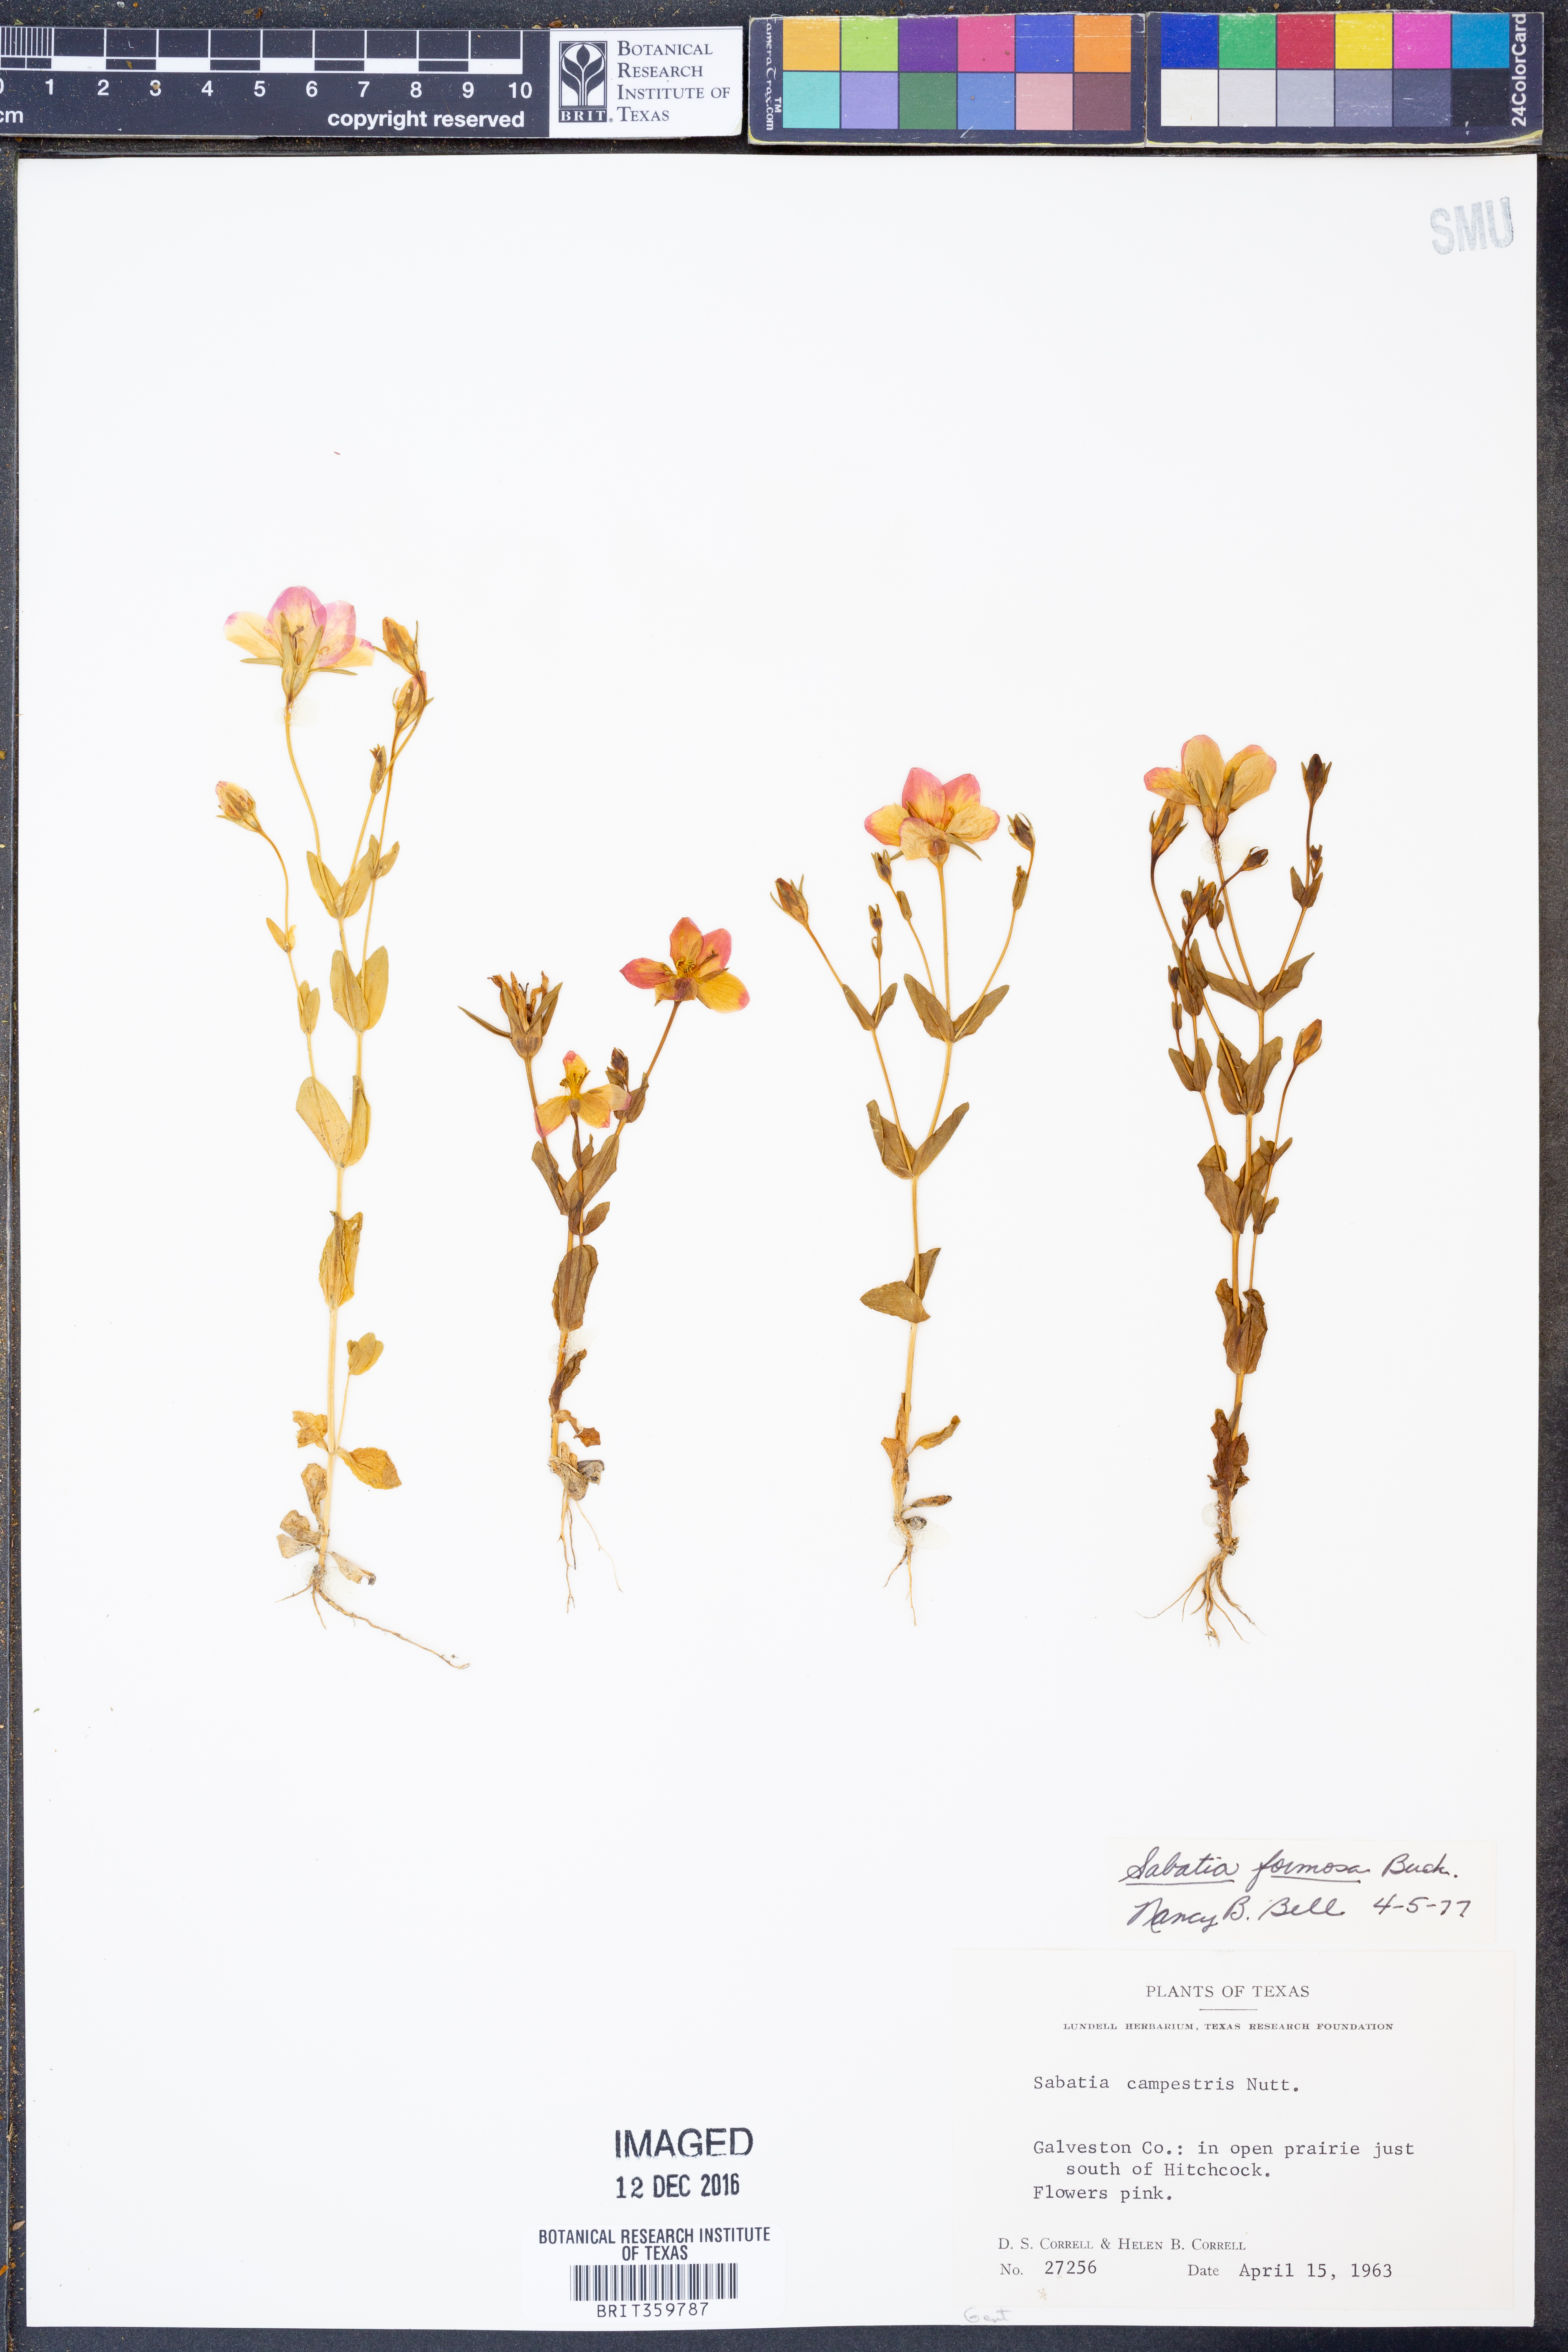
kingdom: Plantae
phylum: Tracheophyta
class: Magnoliopsida
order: Gentianales
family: Gentianaceae
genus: Sabatia
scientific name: Sabatia formosa
